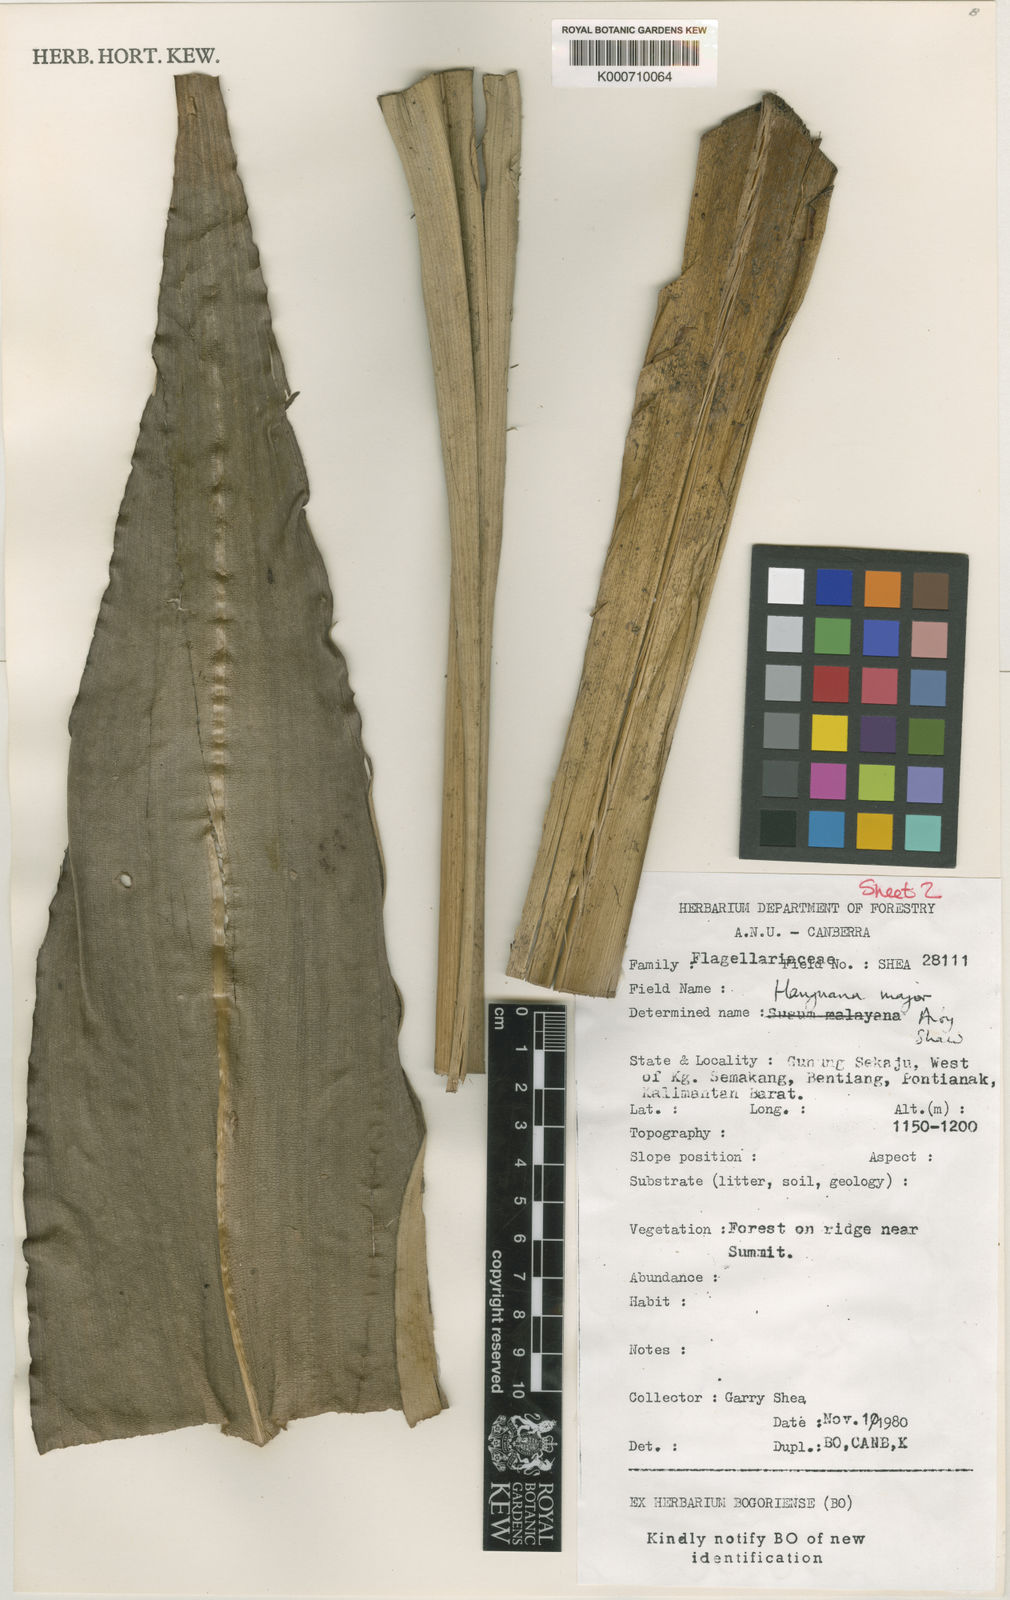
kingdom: Plantae
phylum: Tracheophyta
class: Liliopsida
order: Commelinales
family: Hanguanaceae
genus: Hanguana
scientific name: Hanguana major
